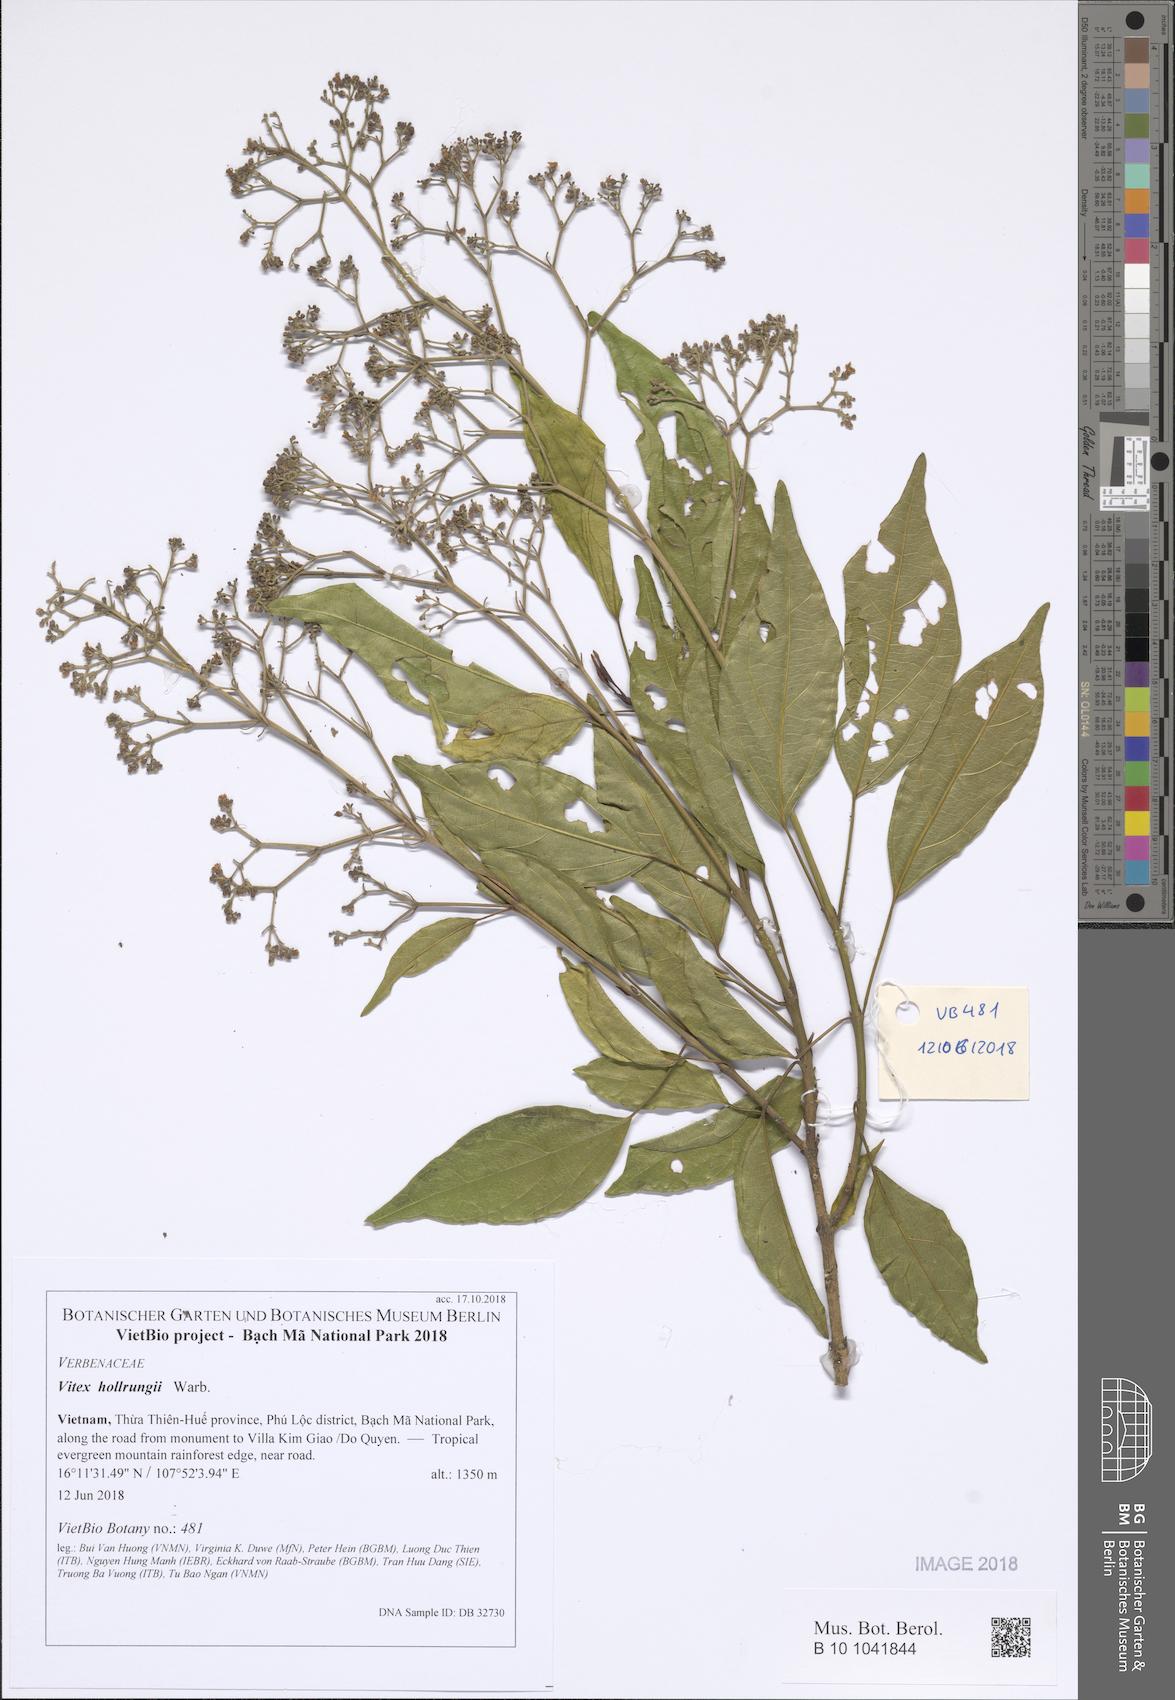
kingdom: Plantae
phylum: Tracheophyta
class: Magnoliopsida
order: Lamiales
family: Lamiaceae
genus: Teijsmanniodendron
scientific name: Teijsmanniodendron hollrungii
